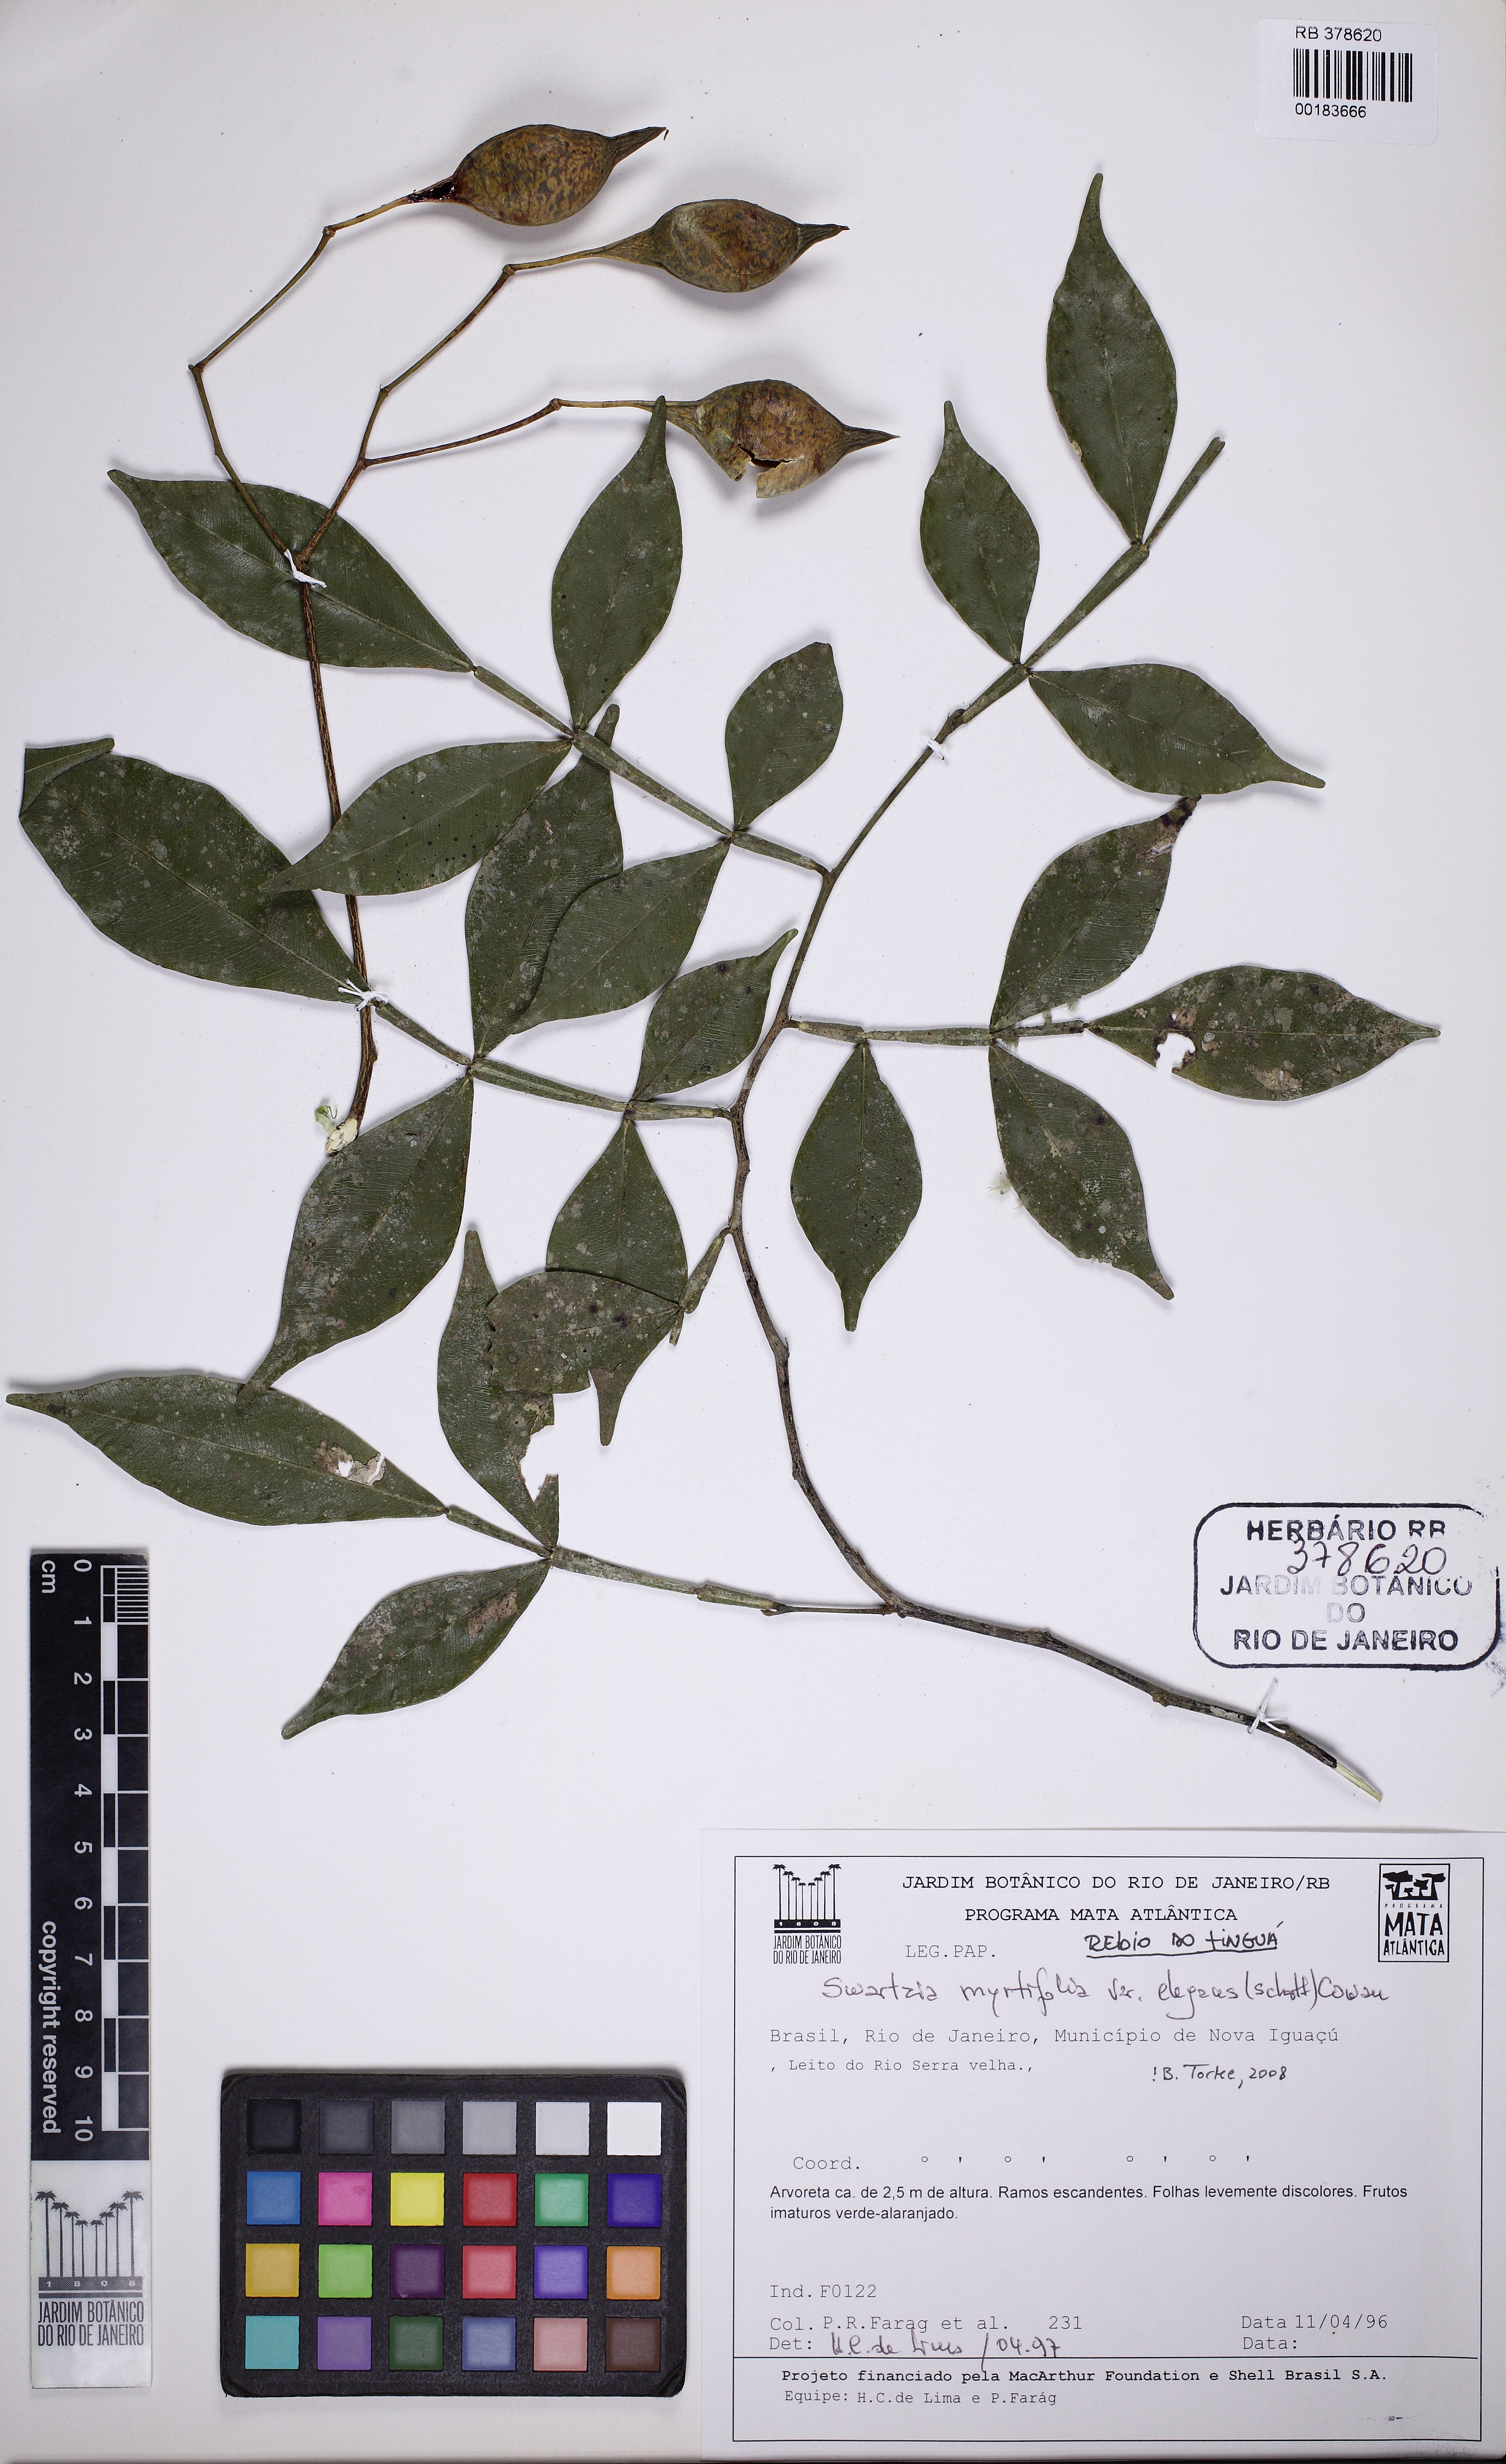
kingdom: Plantae
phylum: Tracheophyta
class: Magnoliopsida
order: Fabales
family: Fabaceae
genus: Swartzia
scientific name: Swartzia myrtifolia
